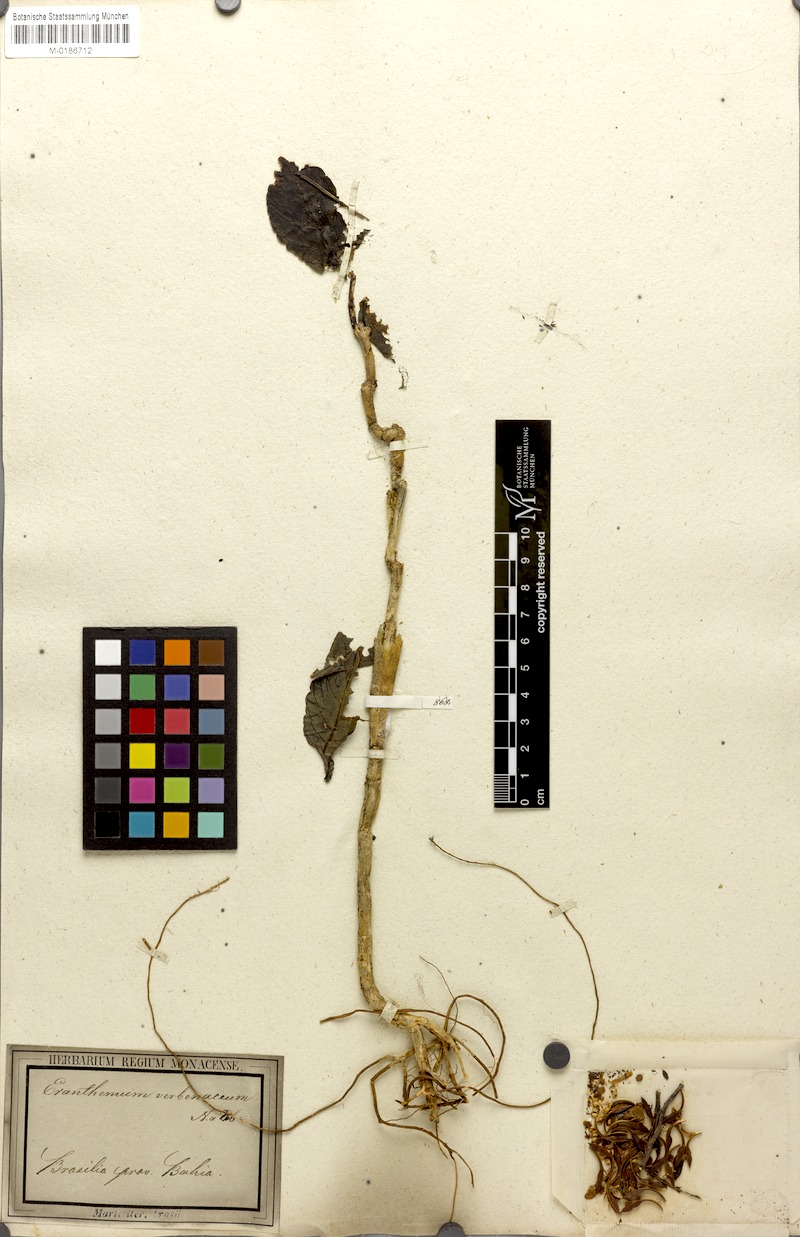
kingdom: Plantae
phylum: Tracheophyta
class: Magnoliopsida
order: Lamiales
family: Acanthaceae
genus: Pseuderanthemum
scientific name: Pseuderanthemum verbenaceum
